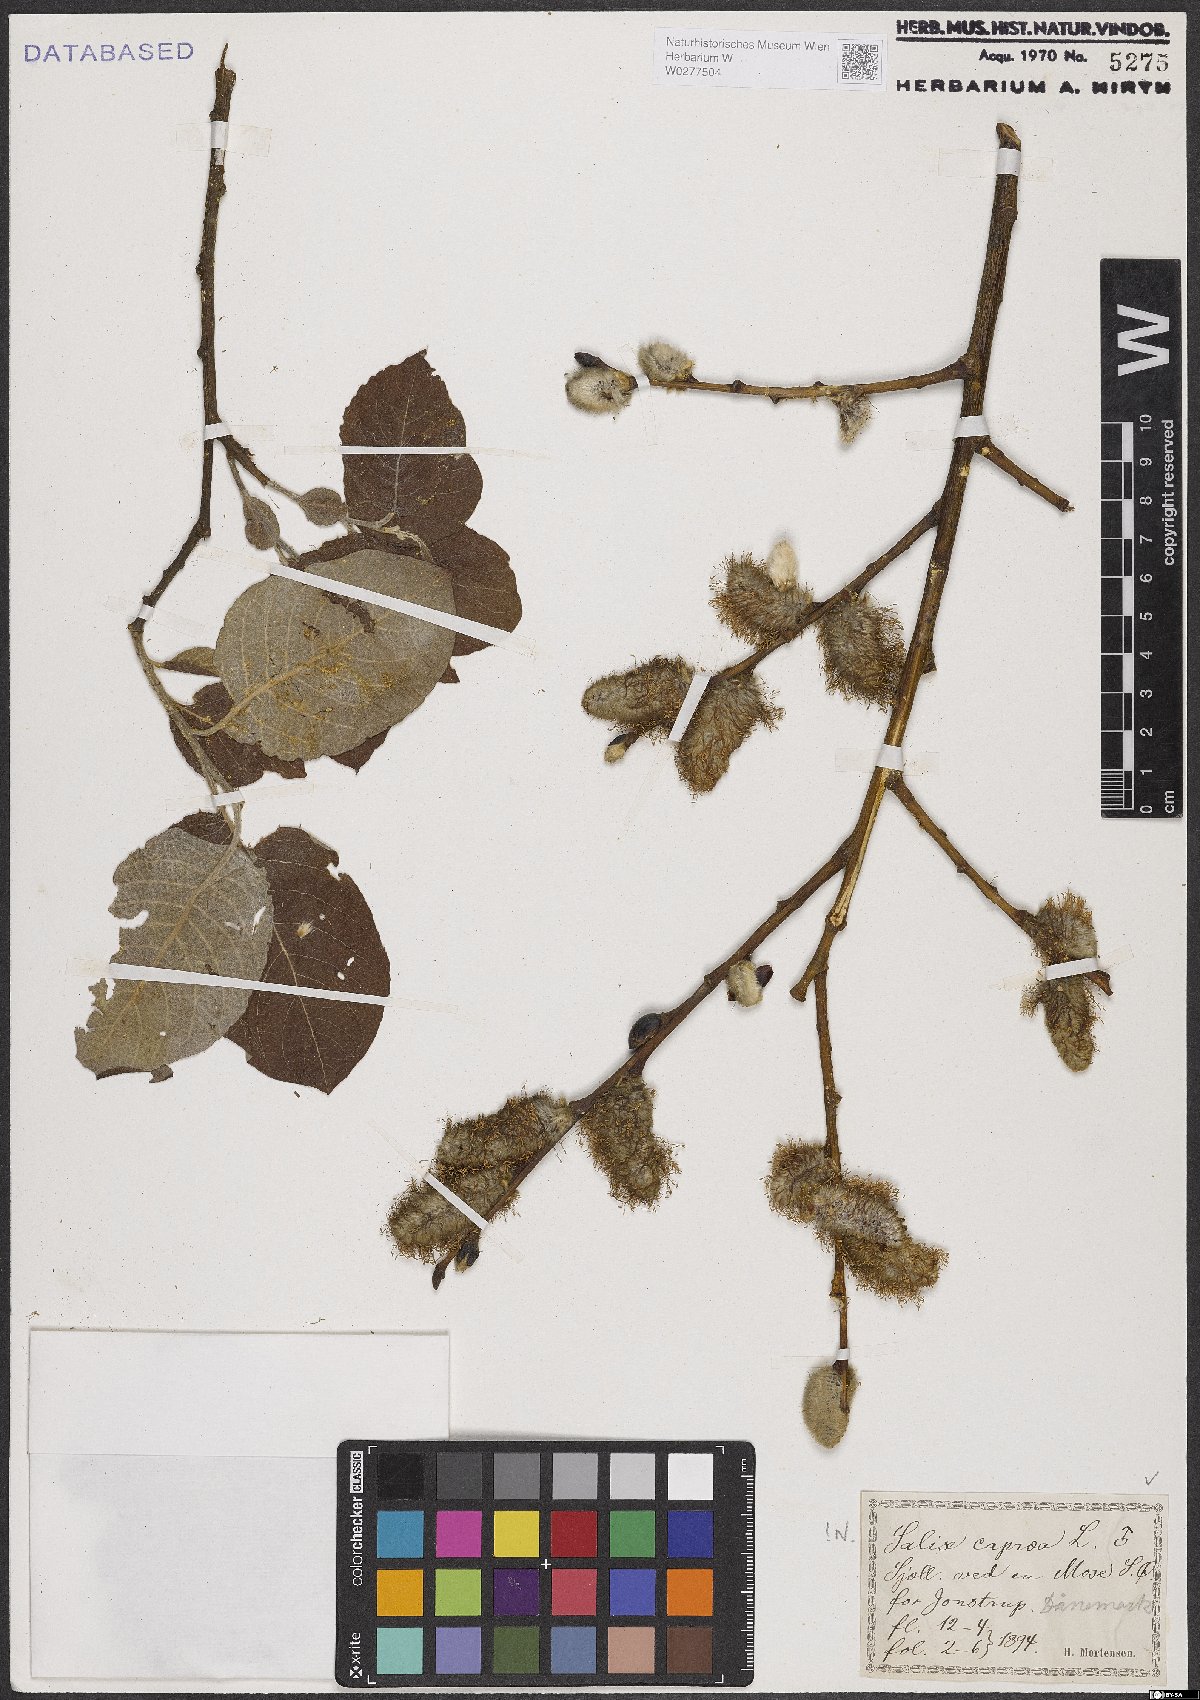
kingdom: Plantae
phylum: Tracheophyta
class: Magnoliopsida
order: Malpighiales
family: Salicaceae
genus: Salix
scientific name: Salix caprea
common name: Goat willow
